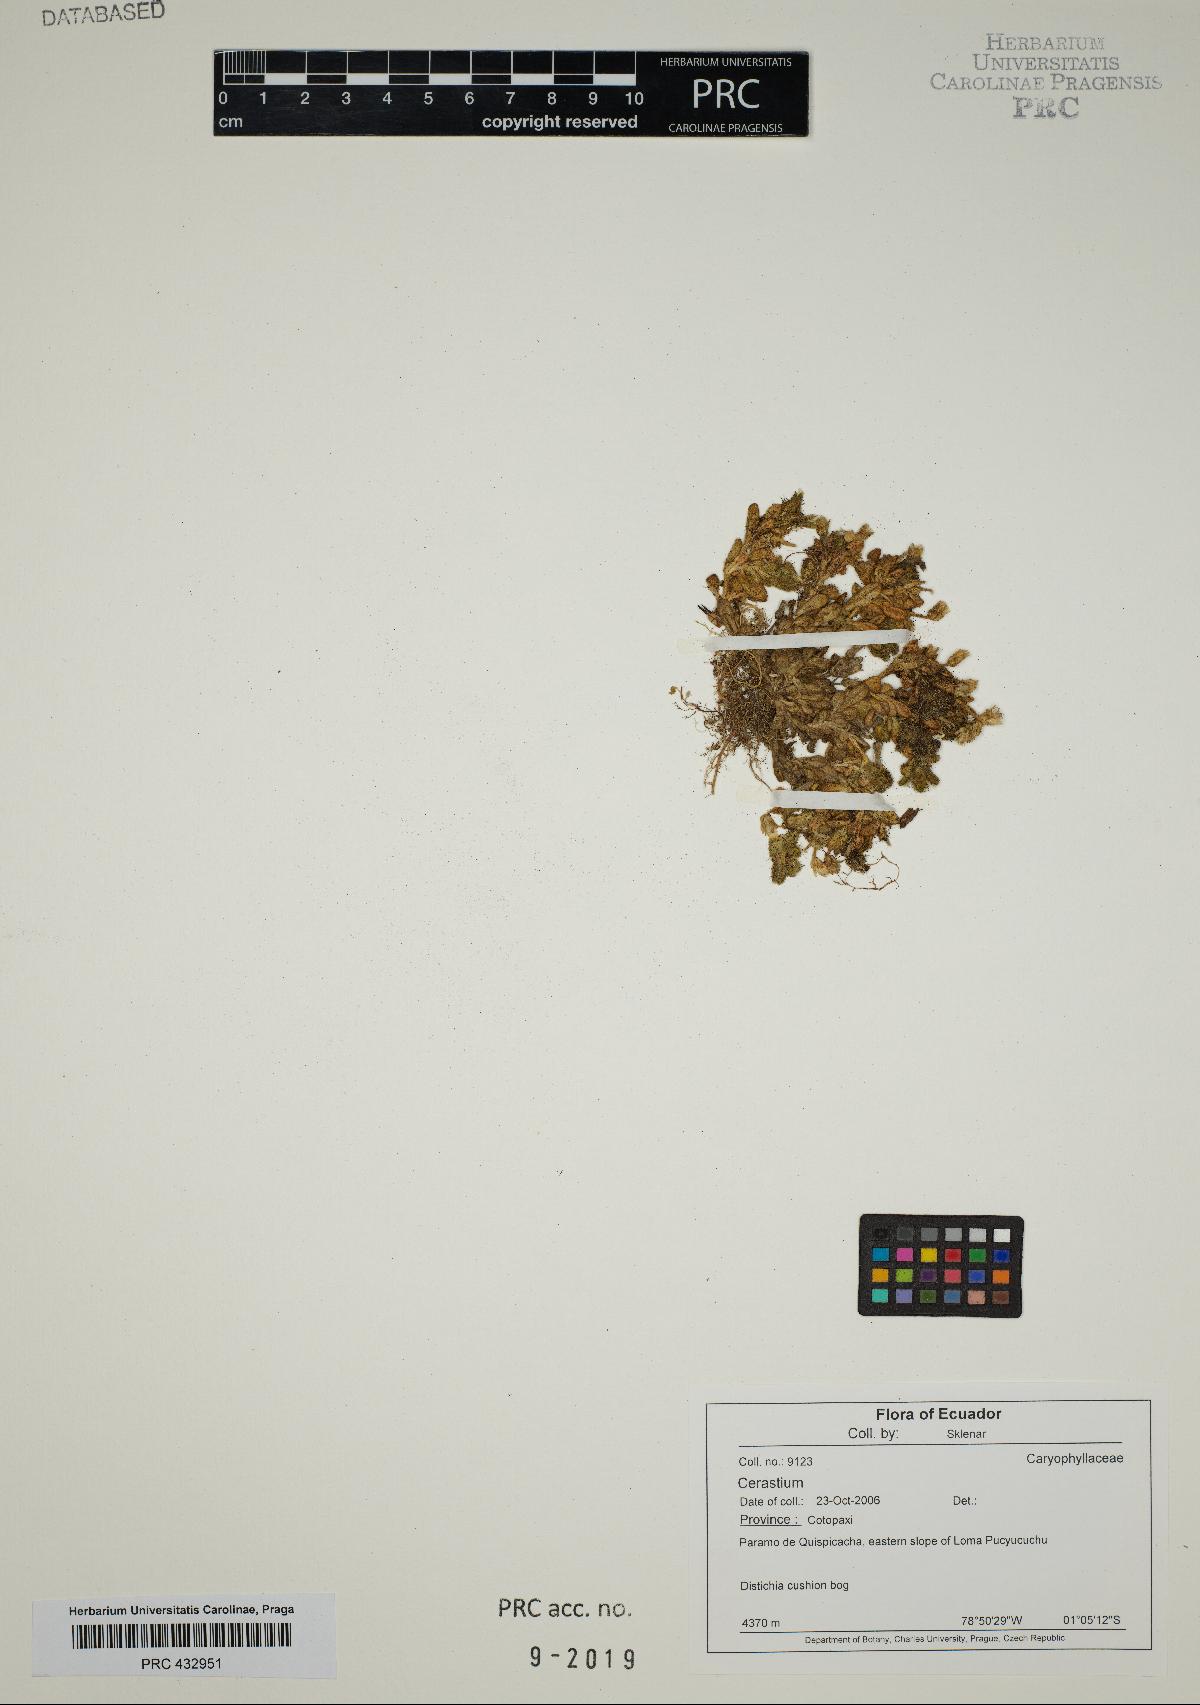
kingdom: Plantae
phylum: Tracheophyta
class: Magnoliopsida
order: Caryophyllales
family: Caryophyllaceae
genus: Cerastium
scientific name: Cerastium
